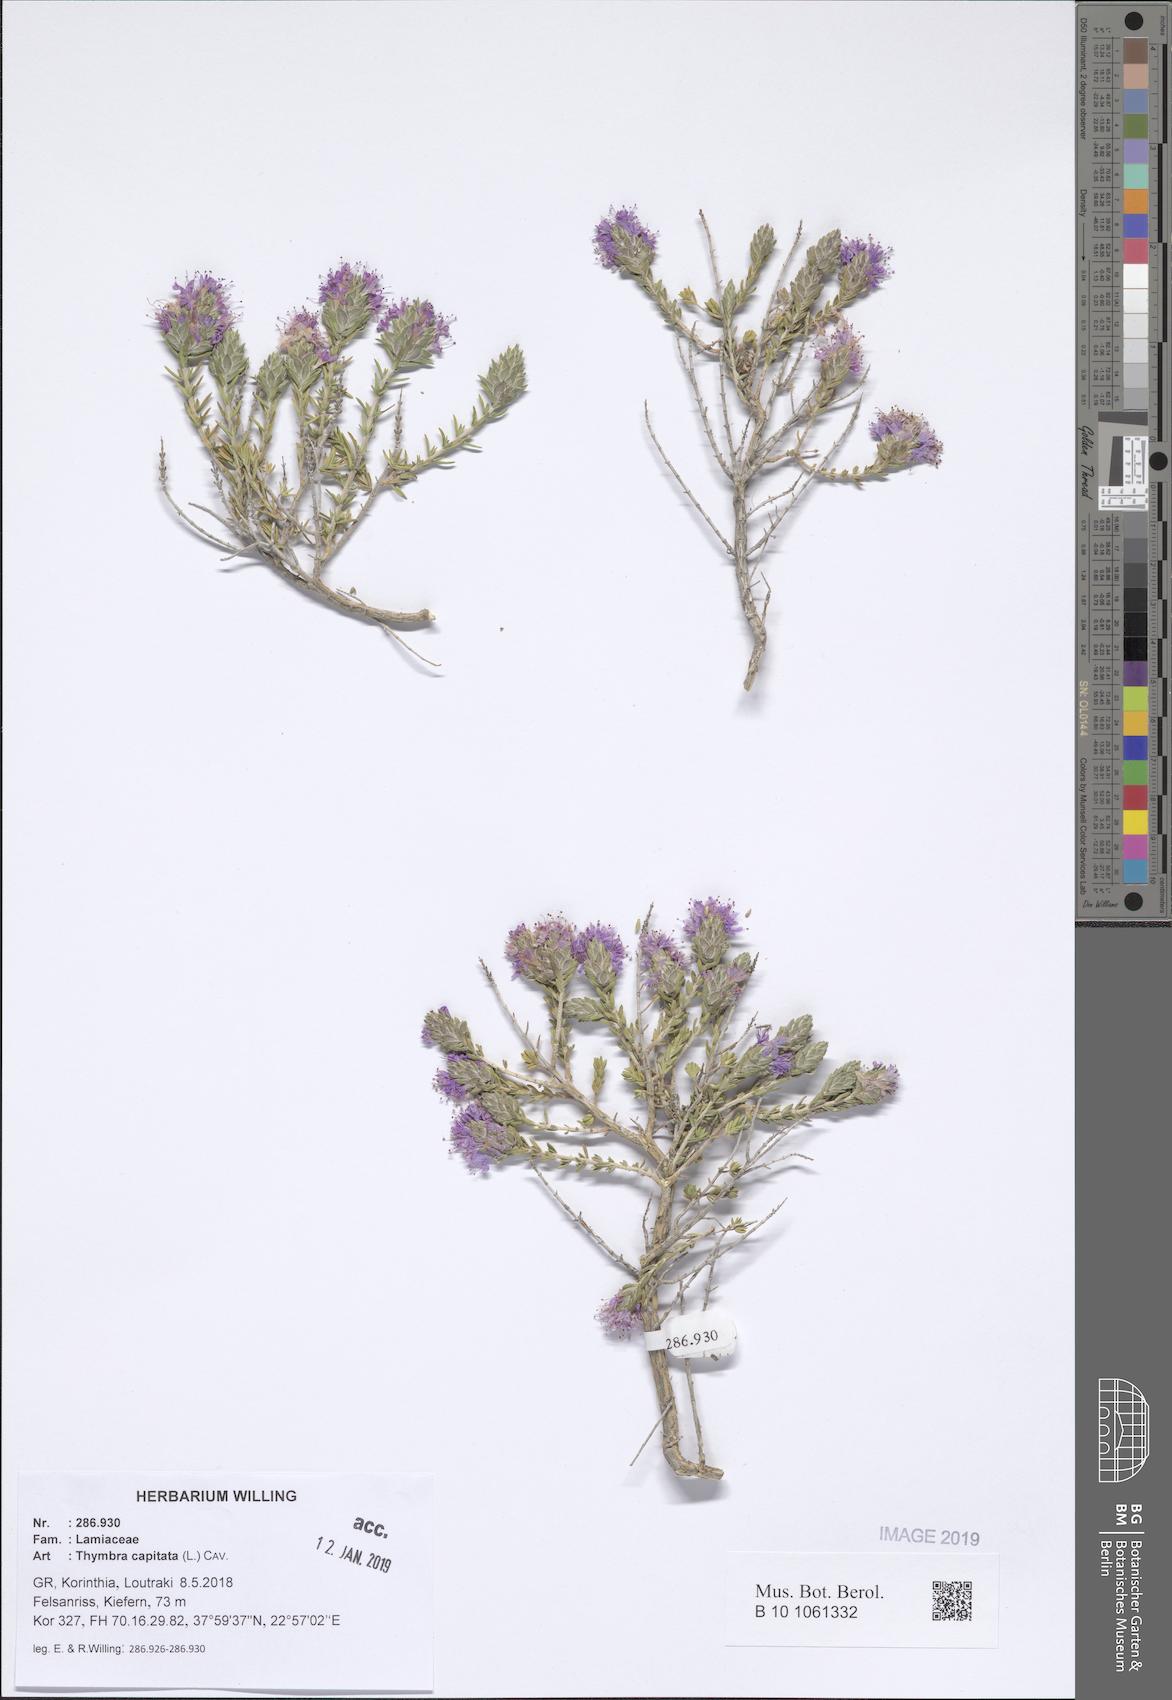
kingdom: Plantae
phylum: Tracheophyta
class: Magnoliopsida
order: Lamiales
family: Lamiaceae
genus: Thymbra
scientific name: Thymbra capitata
